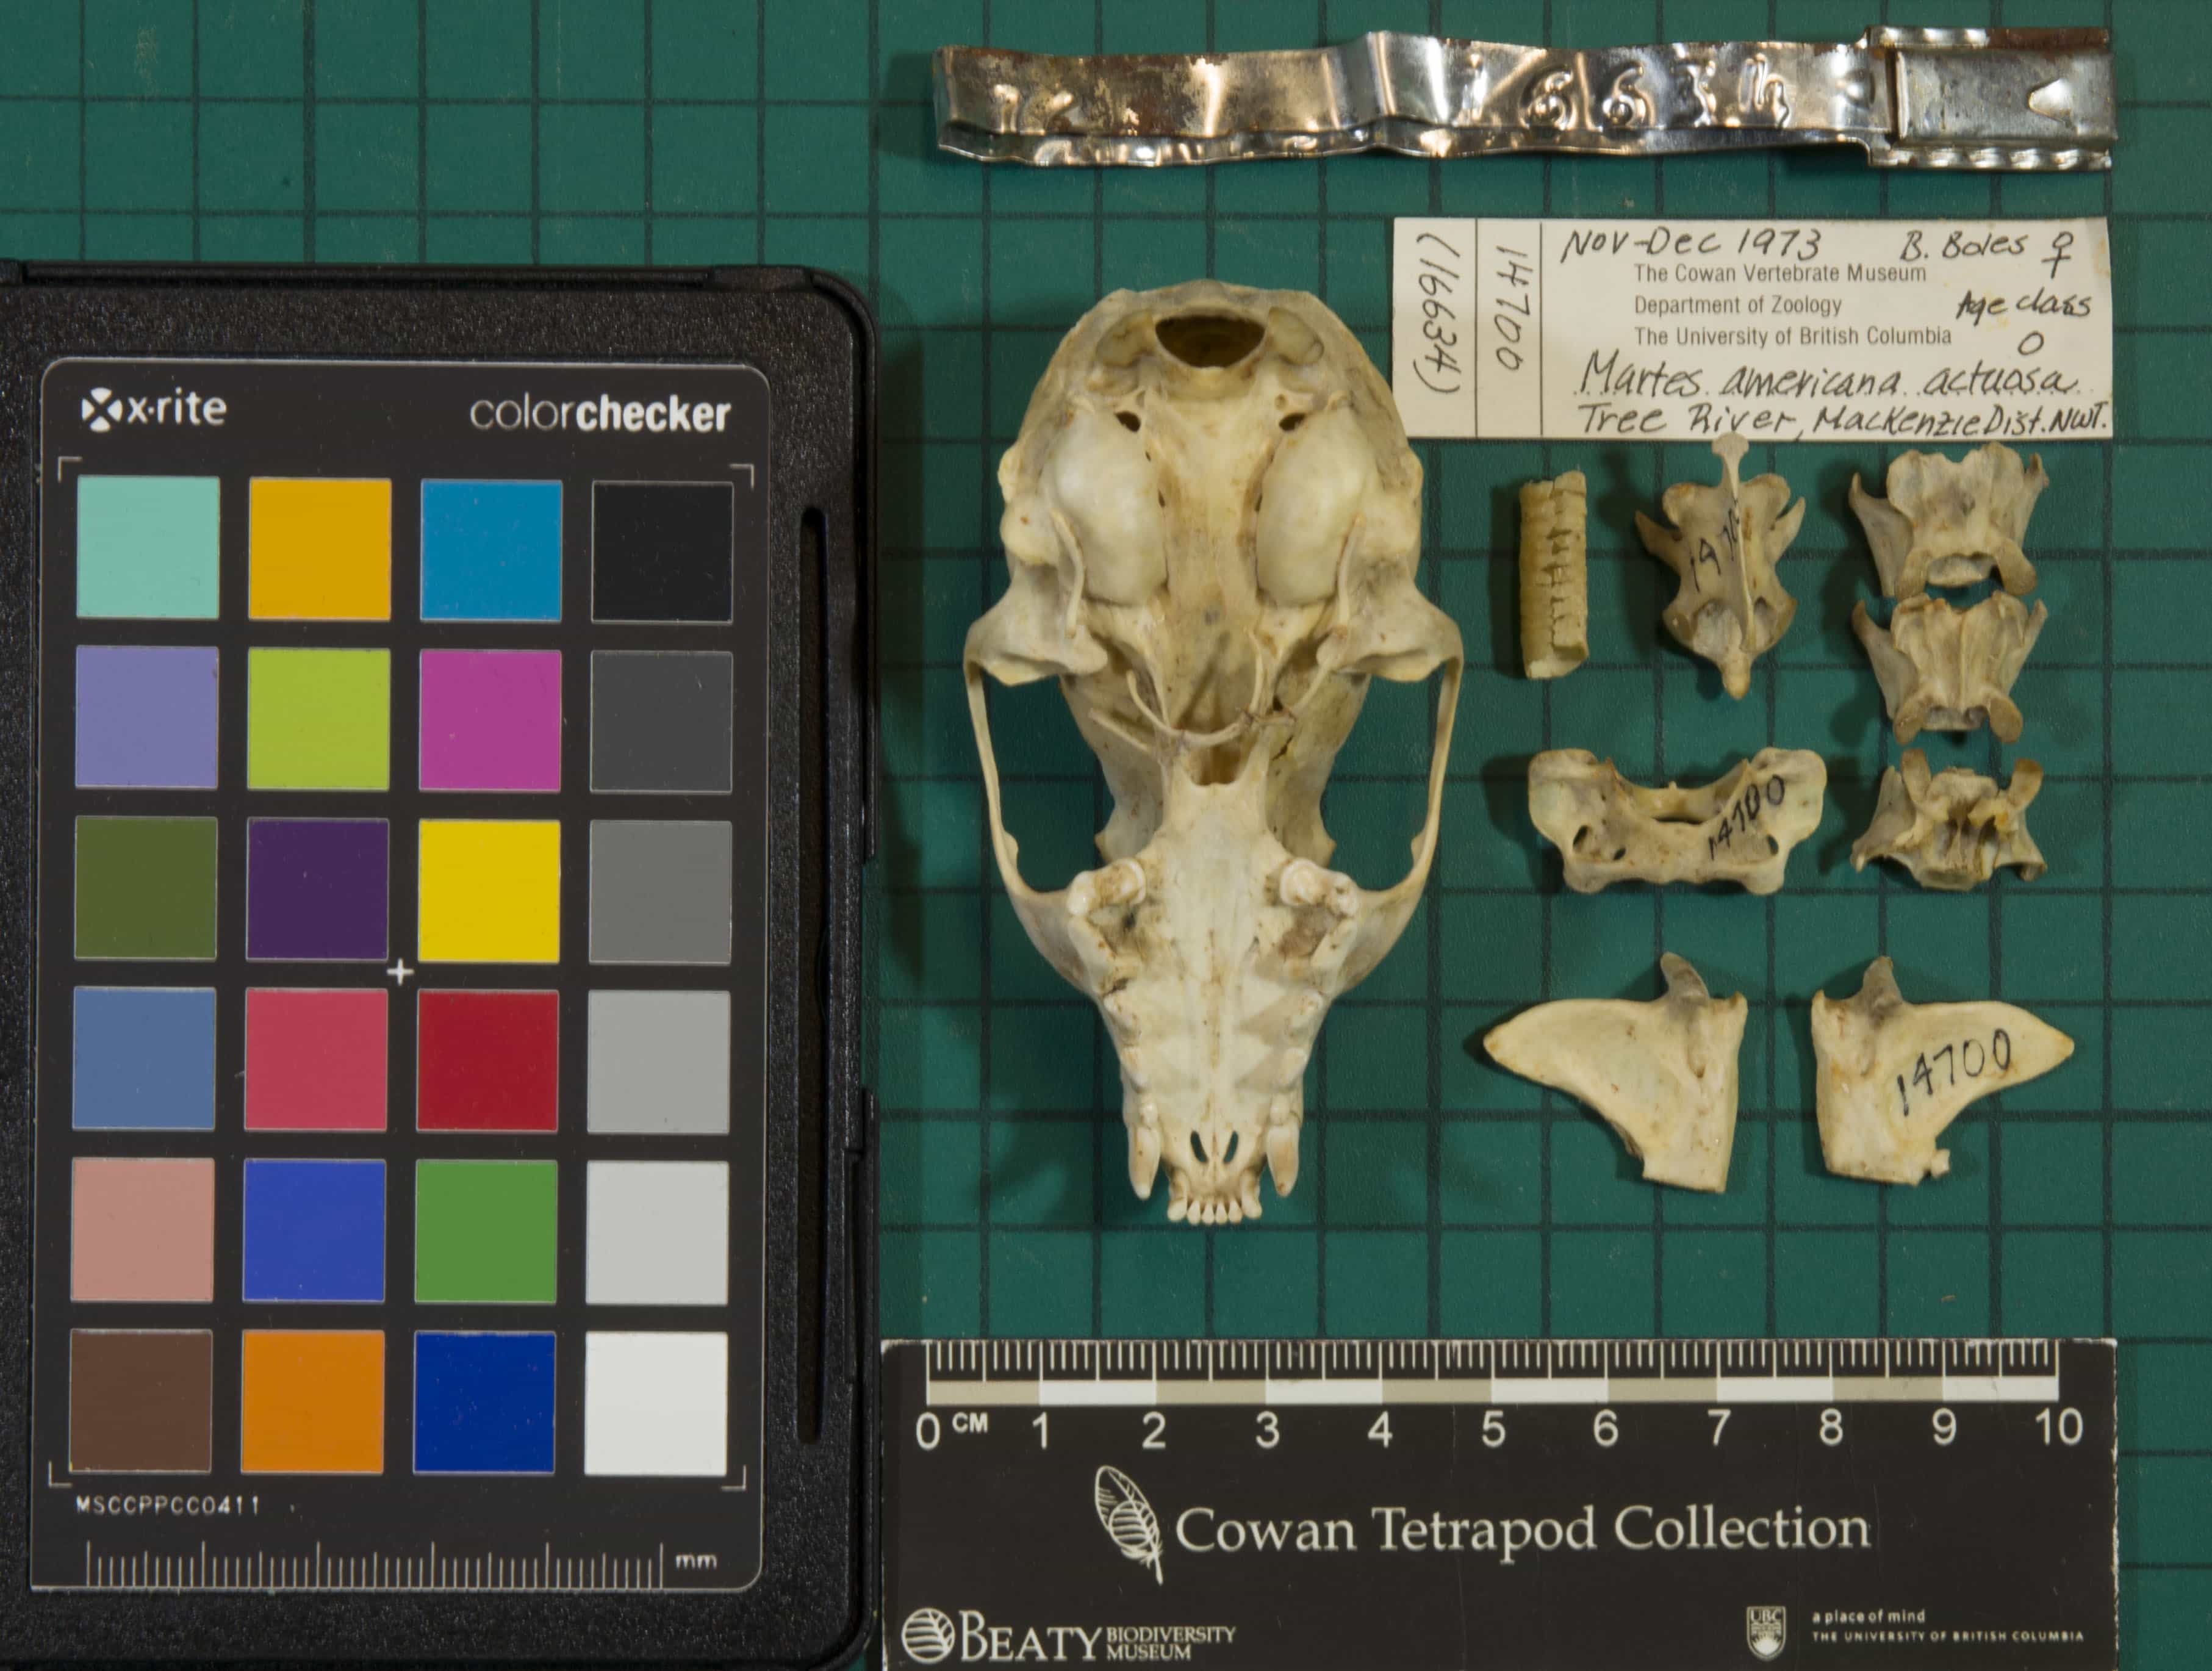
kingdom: Animalia
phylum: Chordata
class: Mammalia
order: Carnivora
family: Mustelidae
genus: Martes
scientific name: Martes americana
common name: American Marten
